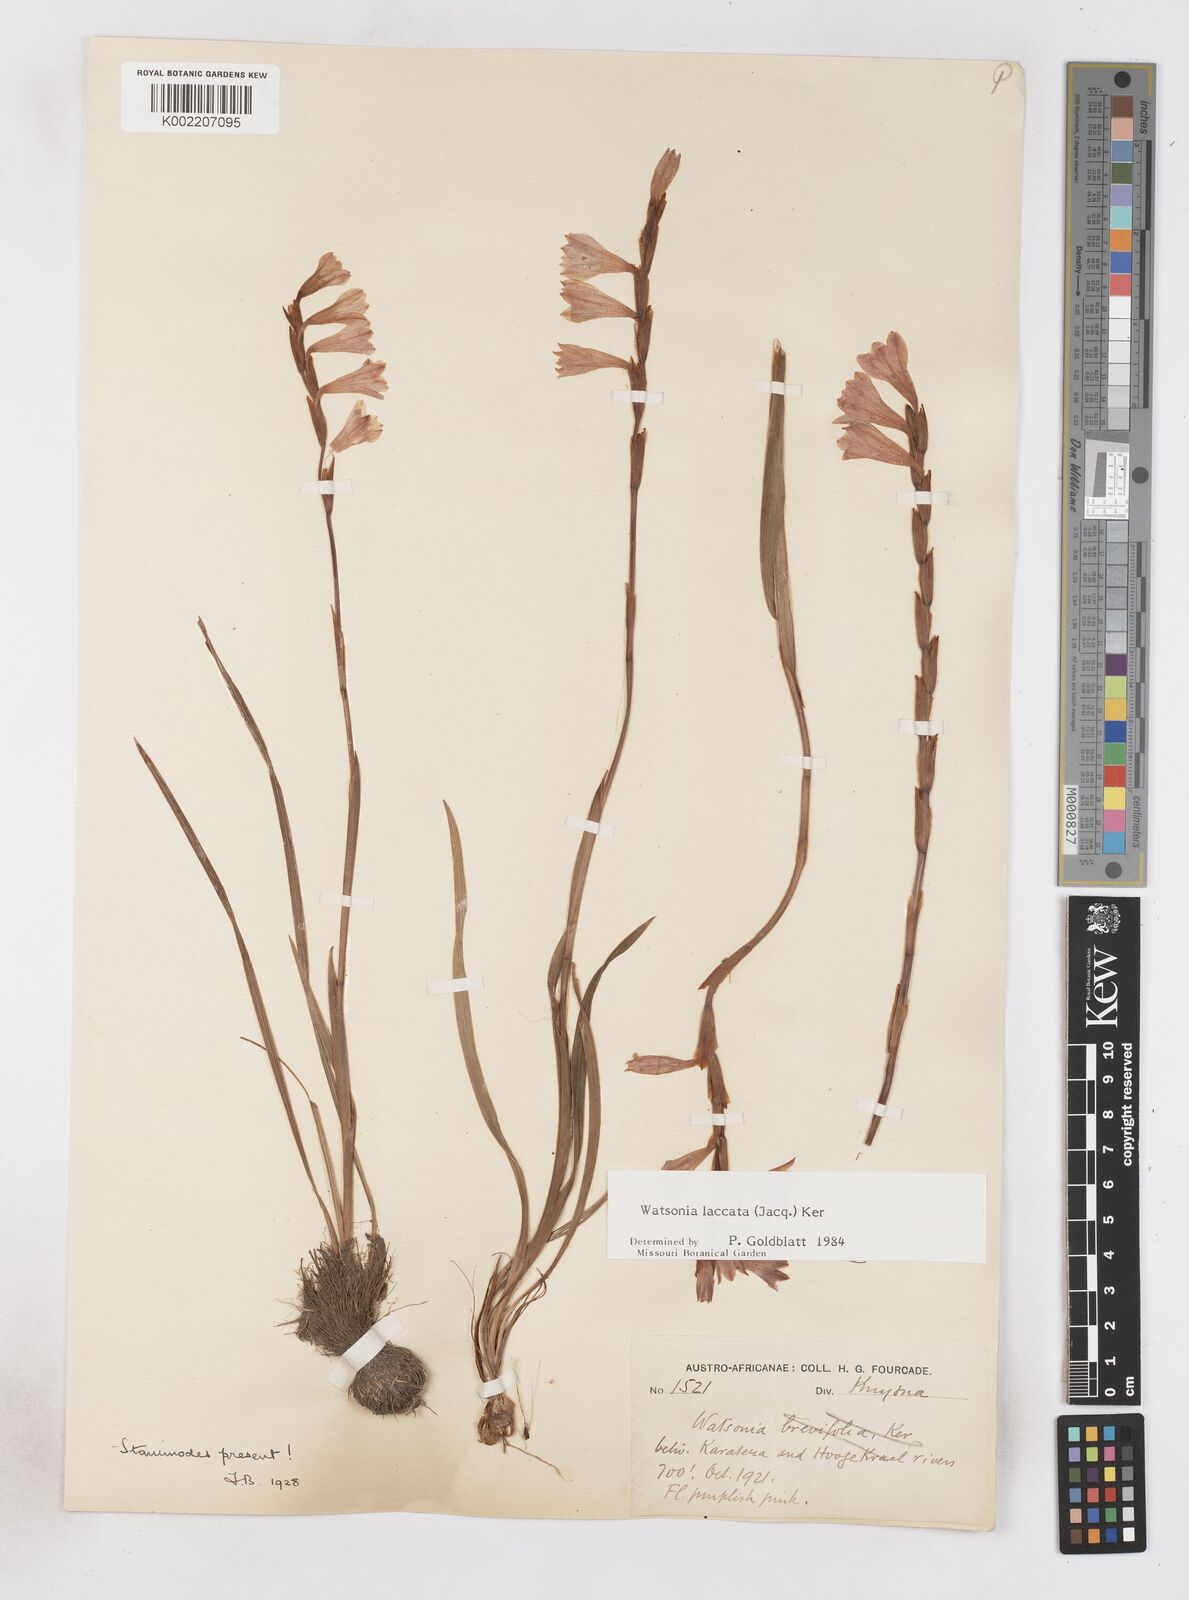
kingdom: Plantae
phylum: Tracheophyta
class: Liliopsida
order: Asparagales
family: Iridaceae
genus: Watsonia
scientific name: Watsonia laccata
